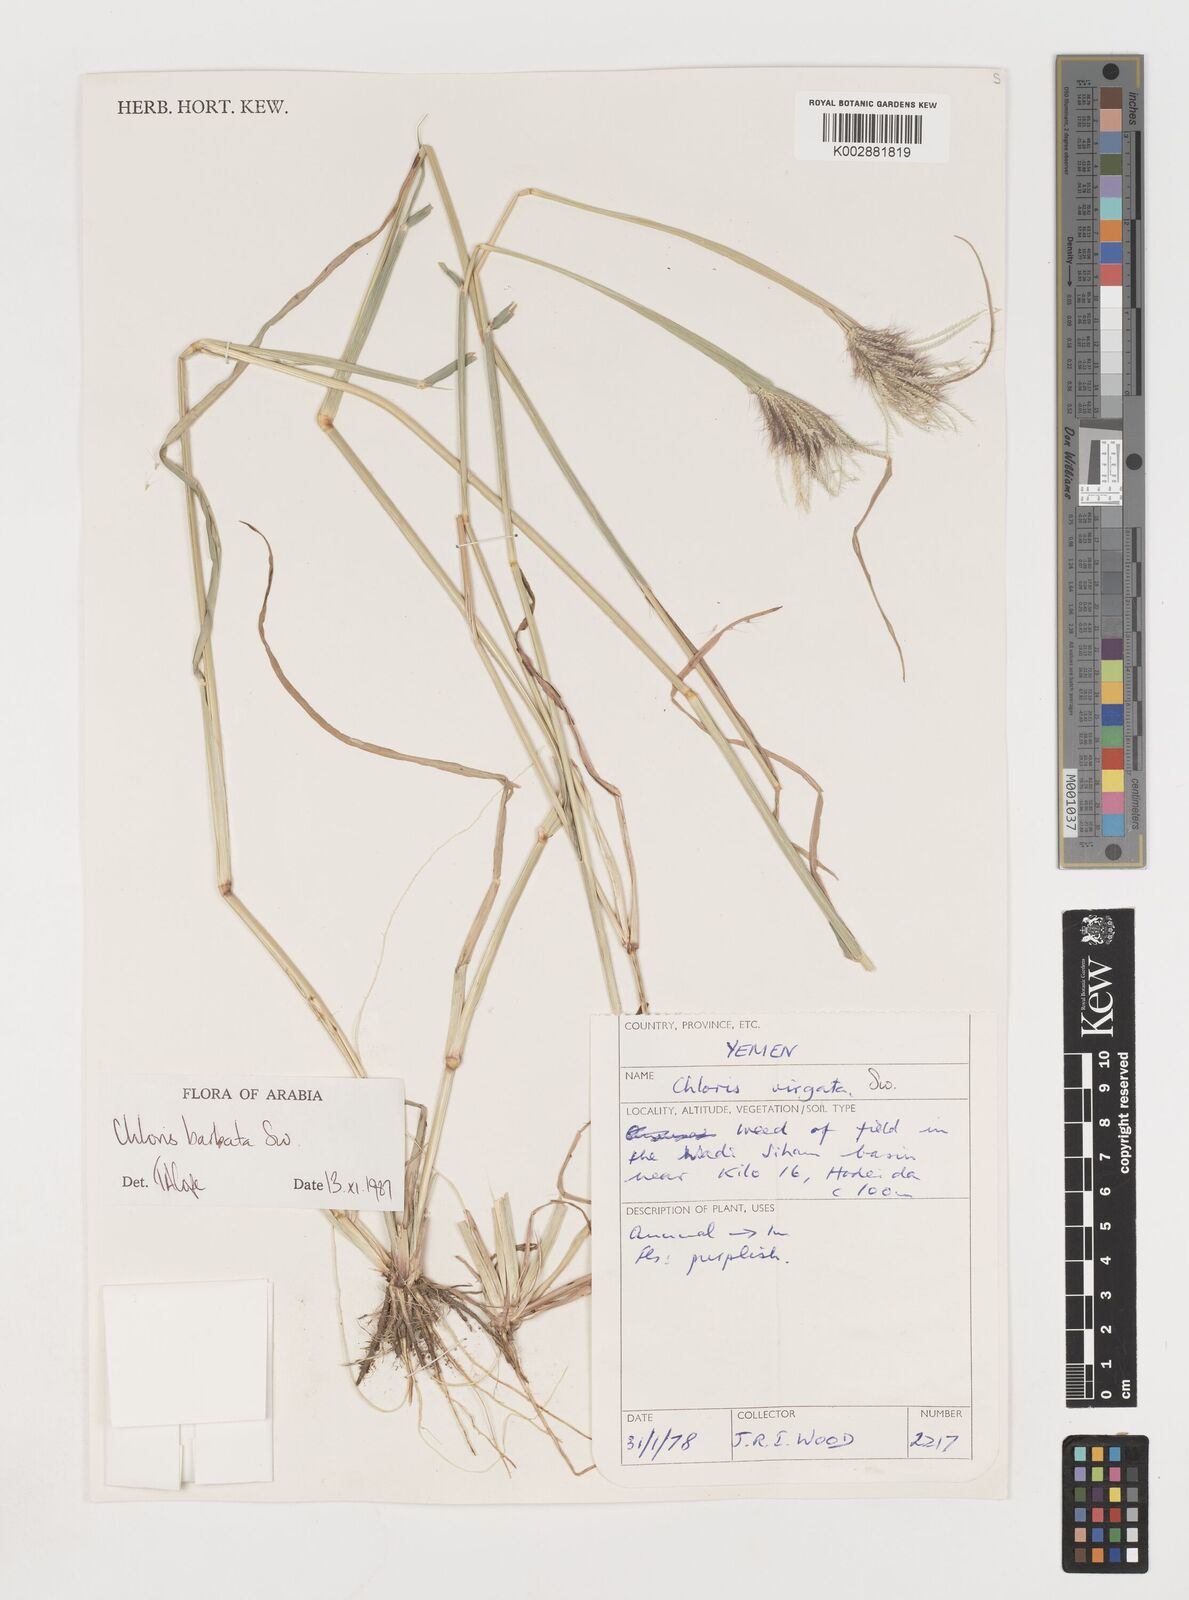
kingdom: Plantae
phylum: Tracheophyta
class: Liliopsida
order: Poales
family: Poaceae
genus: Chloris
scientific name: Chloris barbata
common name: Swollen fingergrass
